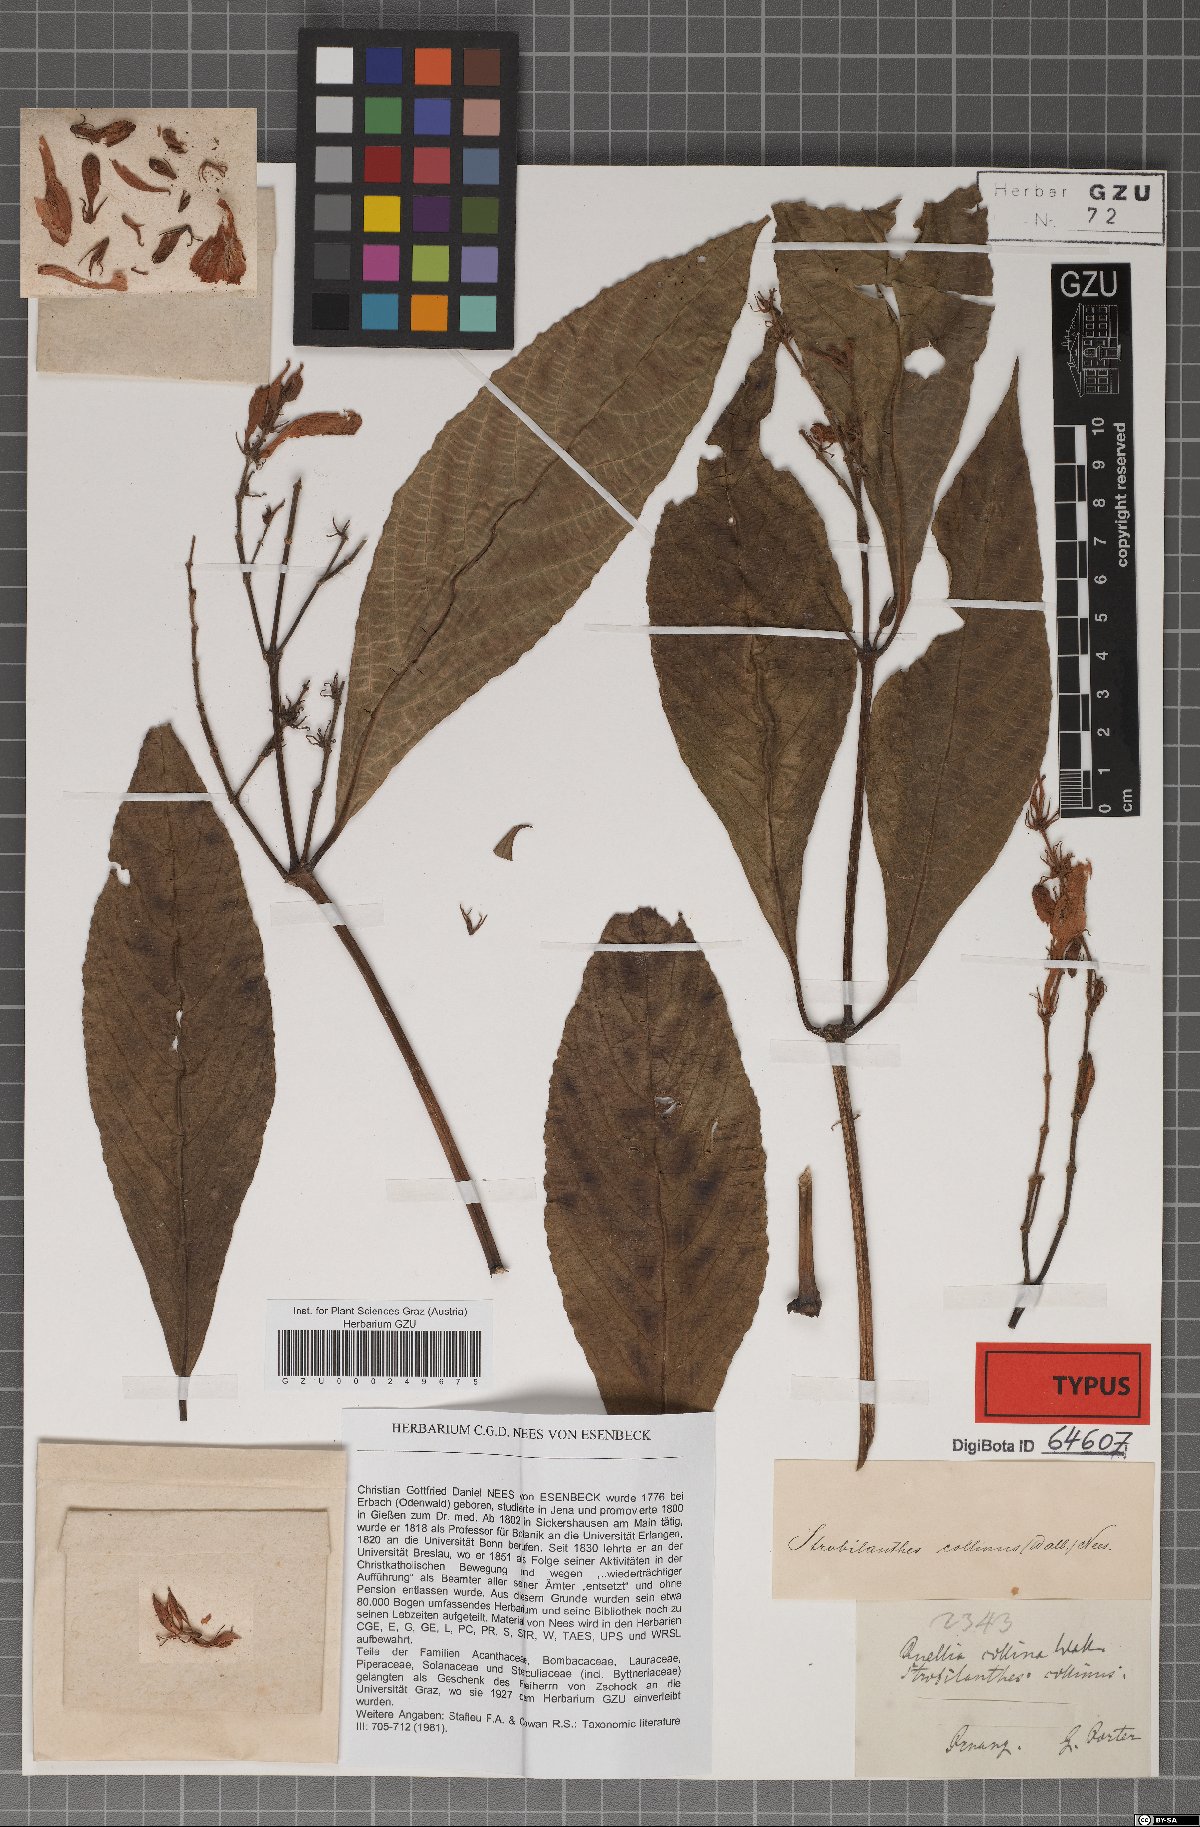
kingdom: Plantae
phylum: Tracheophyta
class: Magnoliopsida
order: Lamiales
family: Acanthaceae
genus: Strobilanthes
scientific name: Strobilanthes collina
